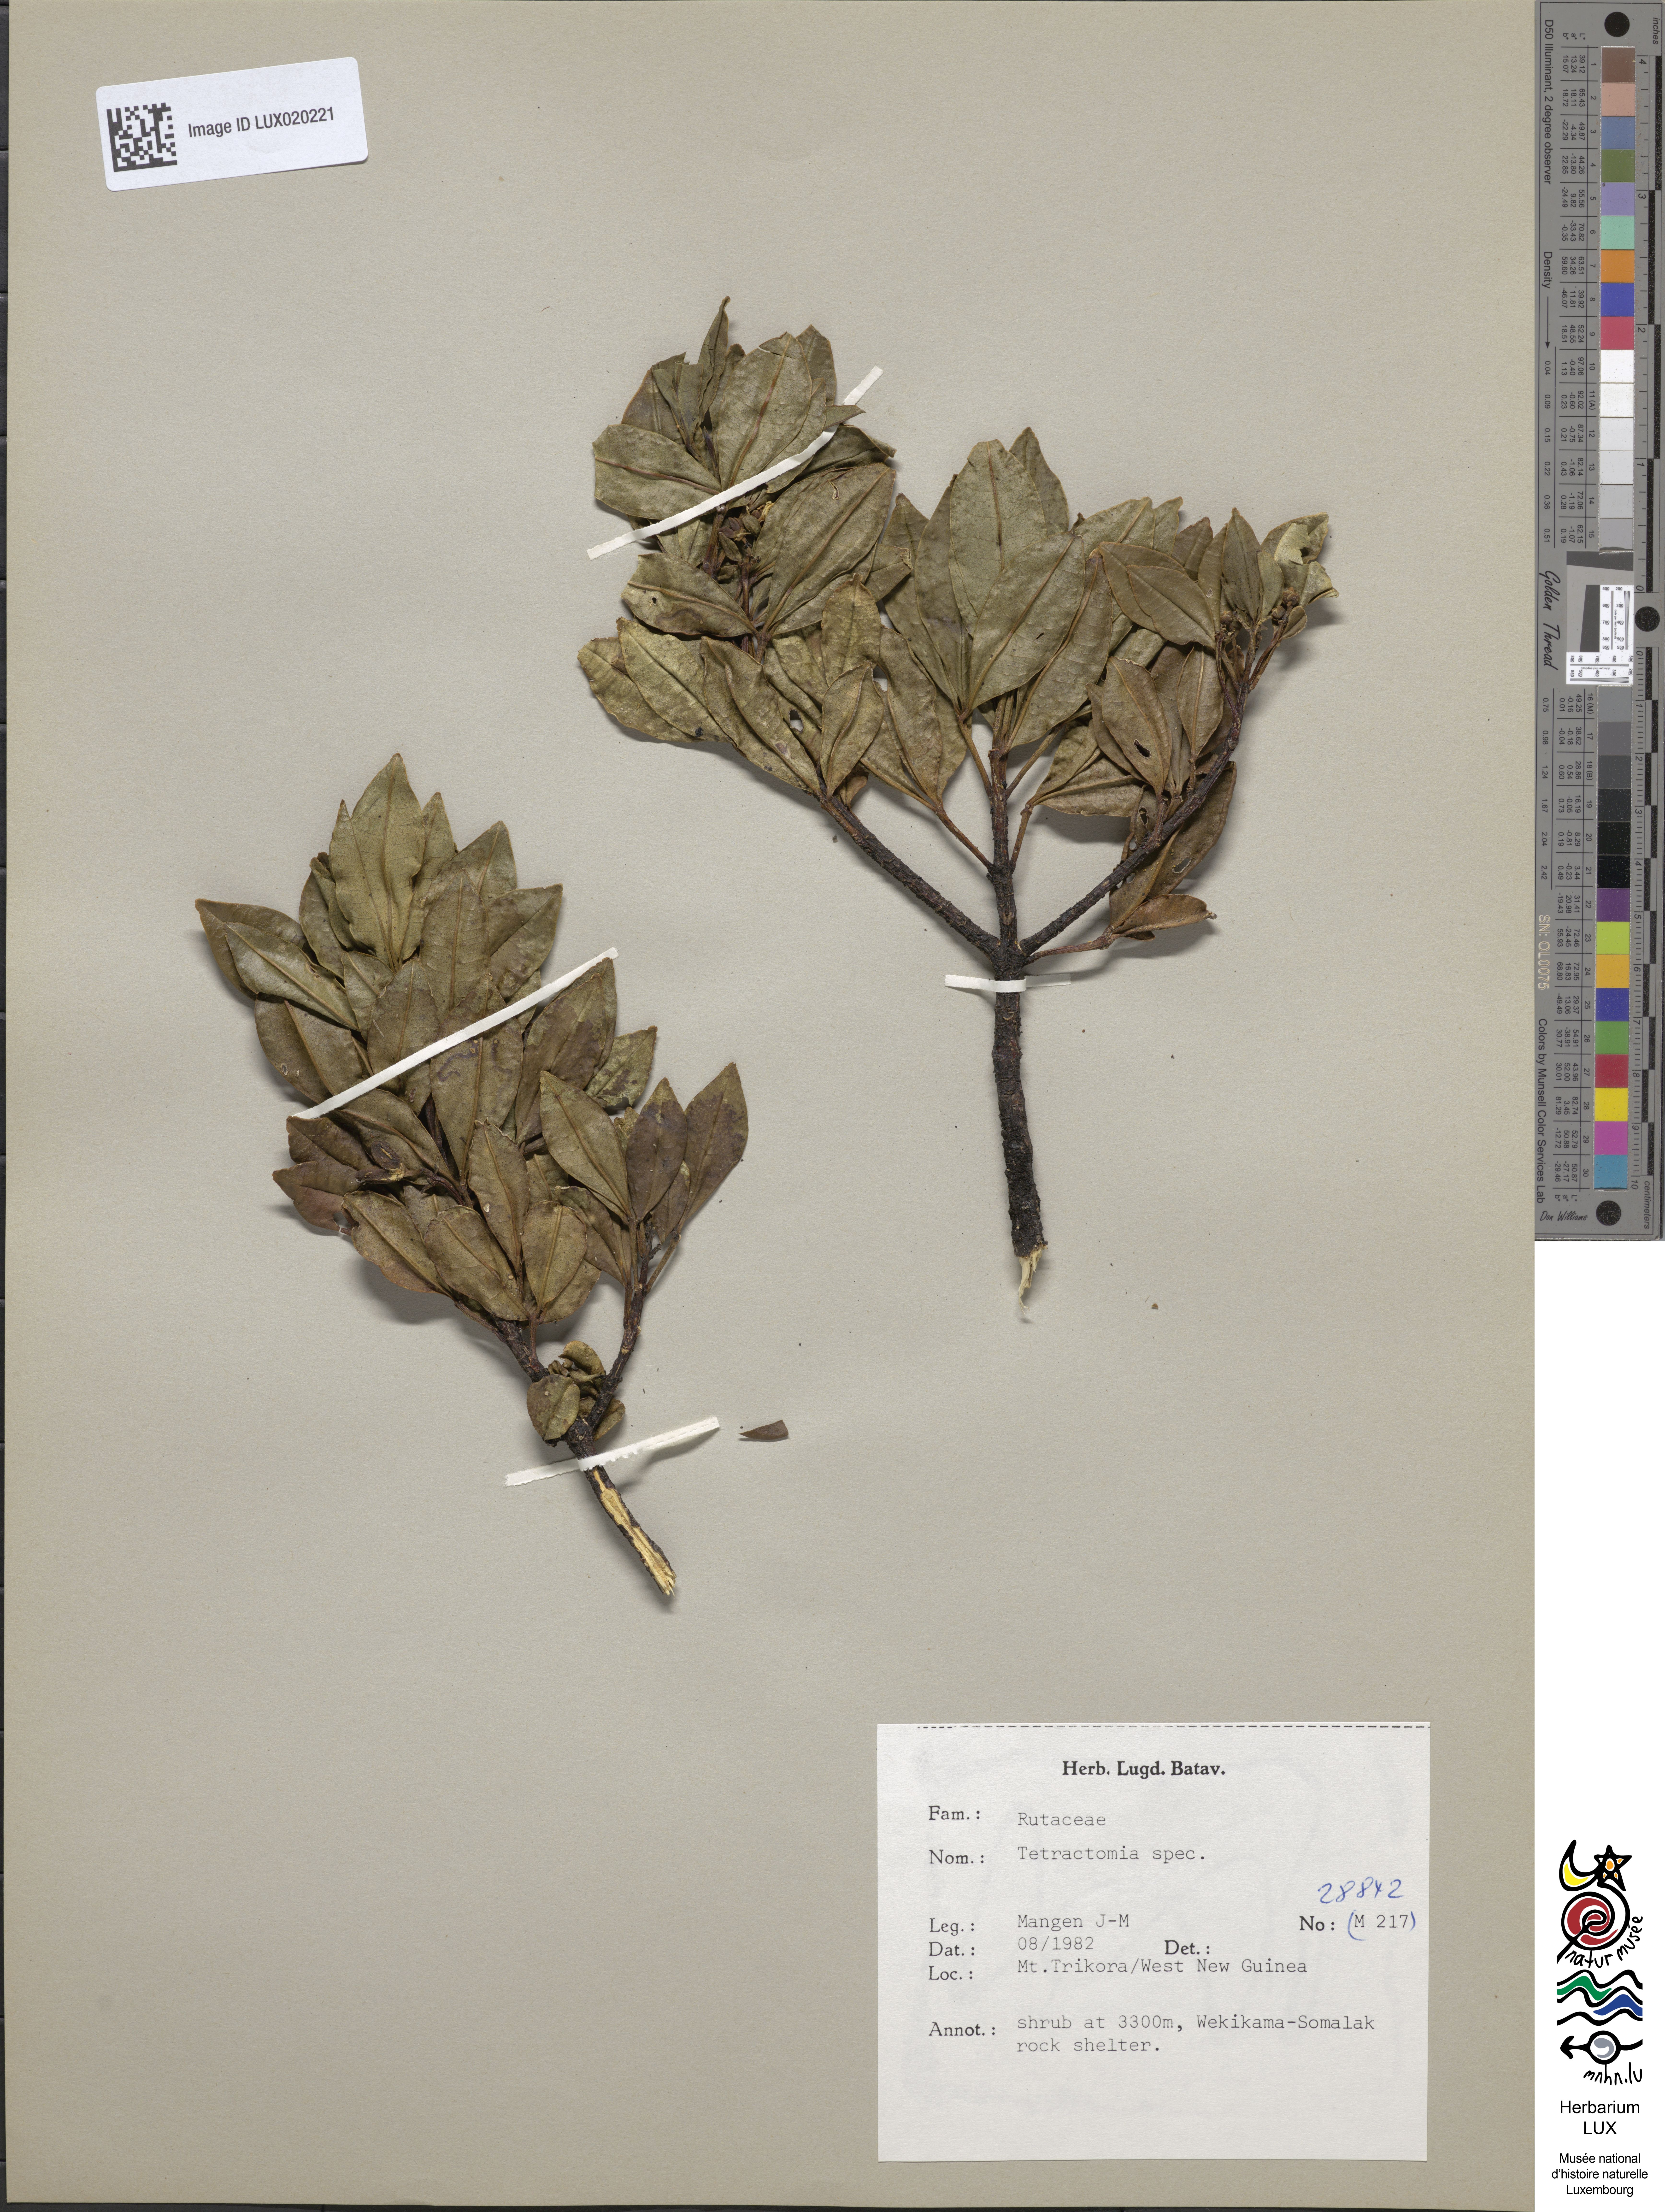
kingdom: Plantae
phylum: Tracheophyta
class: Magnoliopsida
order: Sapindales
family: Rutaceae
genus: Tetractomia
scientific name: Tetractomia
